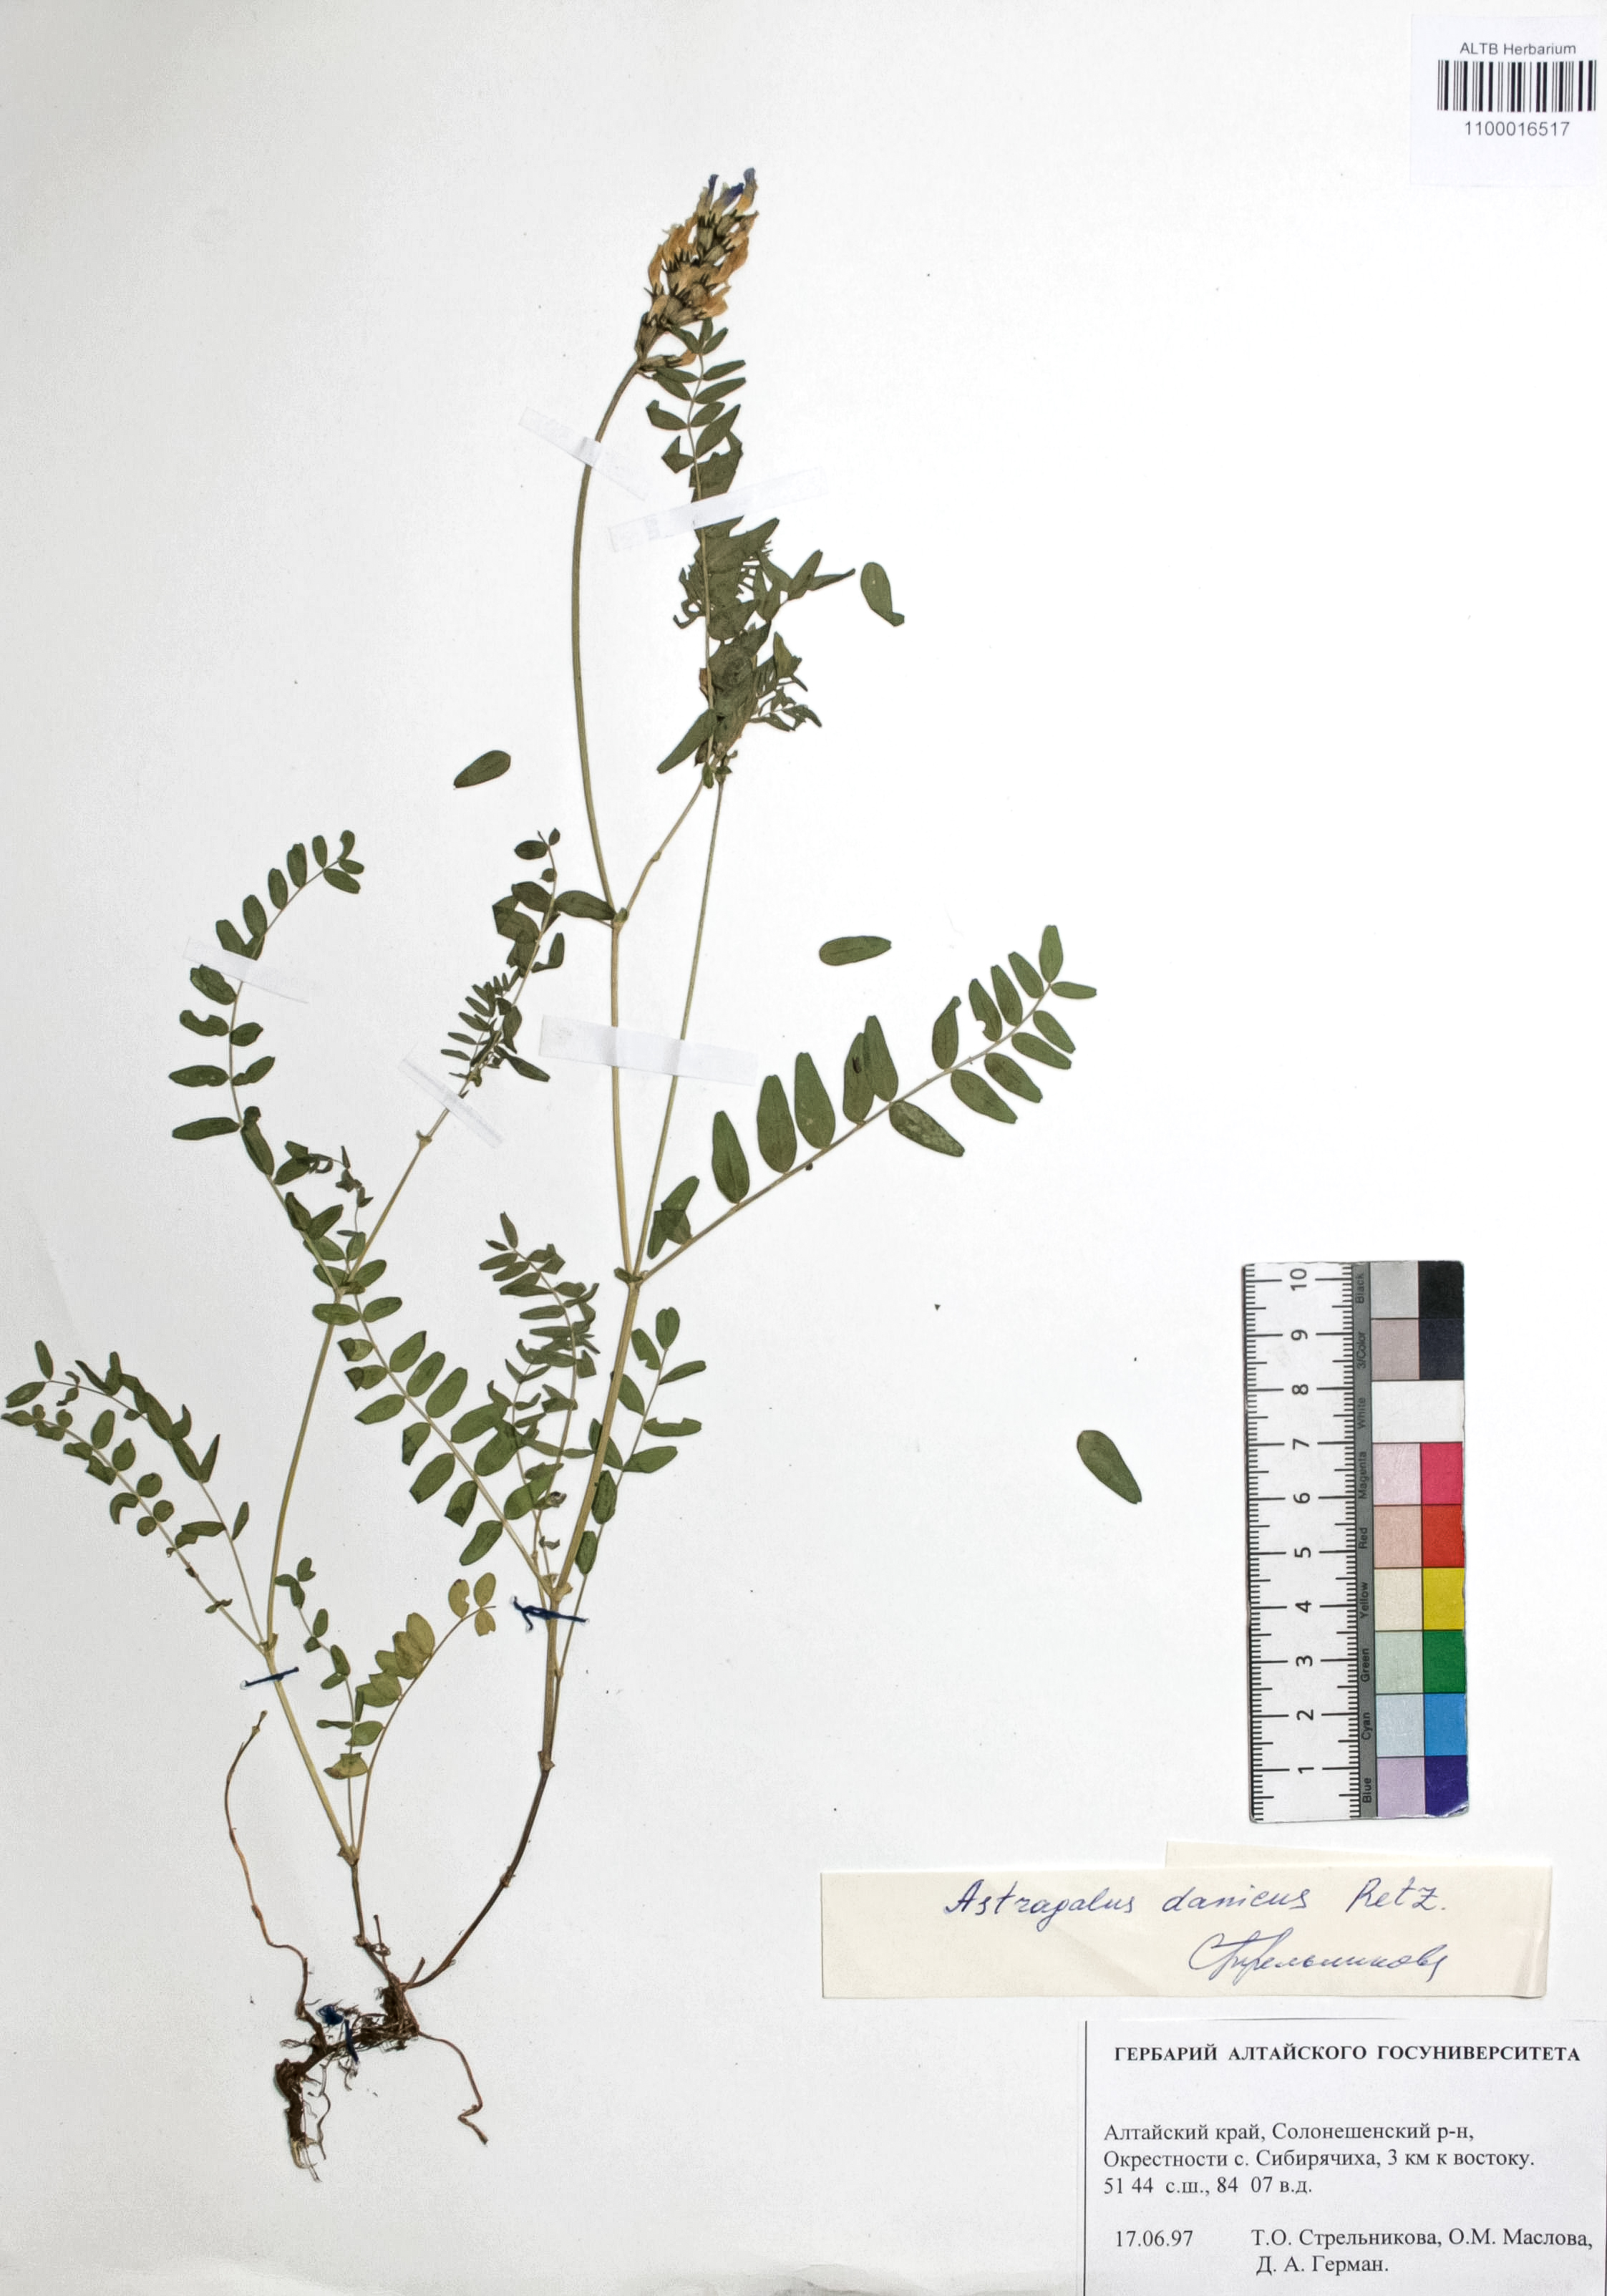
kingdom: Plantae
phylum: Tracheophyta
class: Magnoliopsida
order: Fabales
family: Fabaceae
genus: Astragalus
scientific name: Astragalus danicus
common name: Purple milk-vetch
